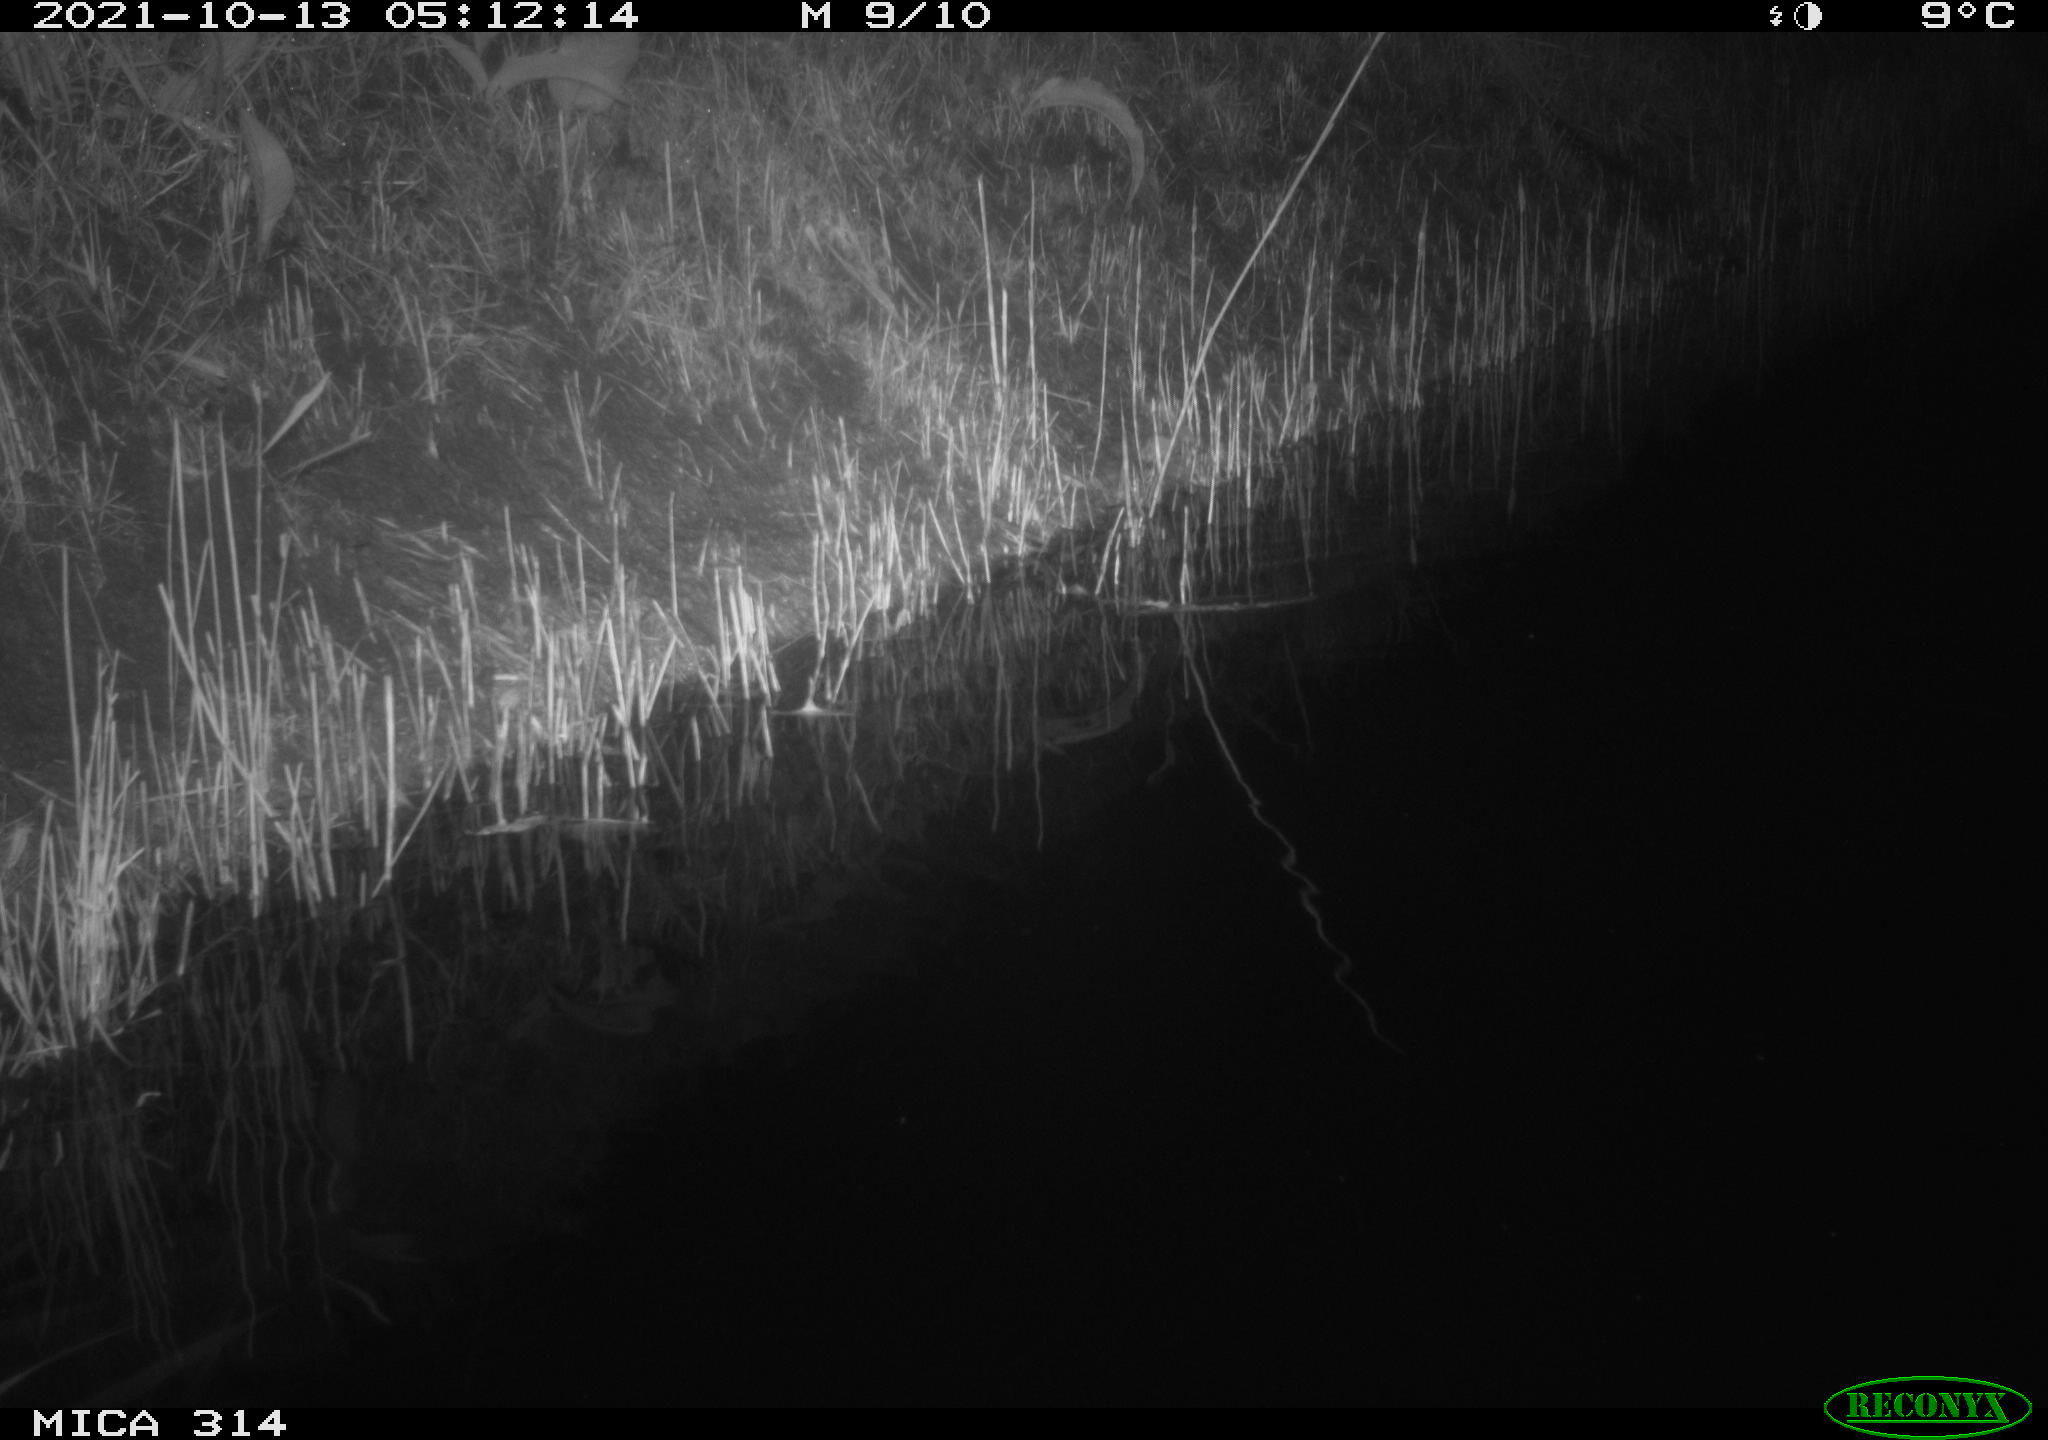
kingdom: Animalia
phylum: Chordata
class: Mammalia
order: Rodentia
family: Muridae
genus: Rattus
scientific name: Rattus norvegicus
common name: Brown rat
